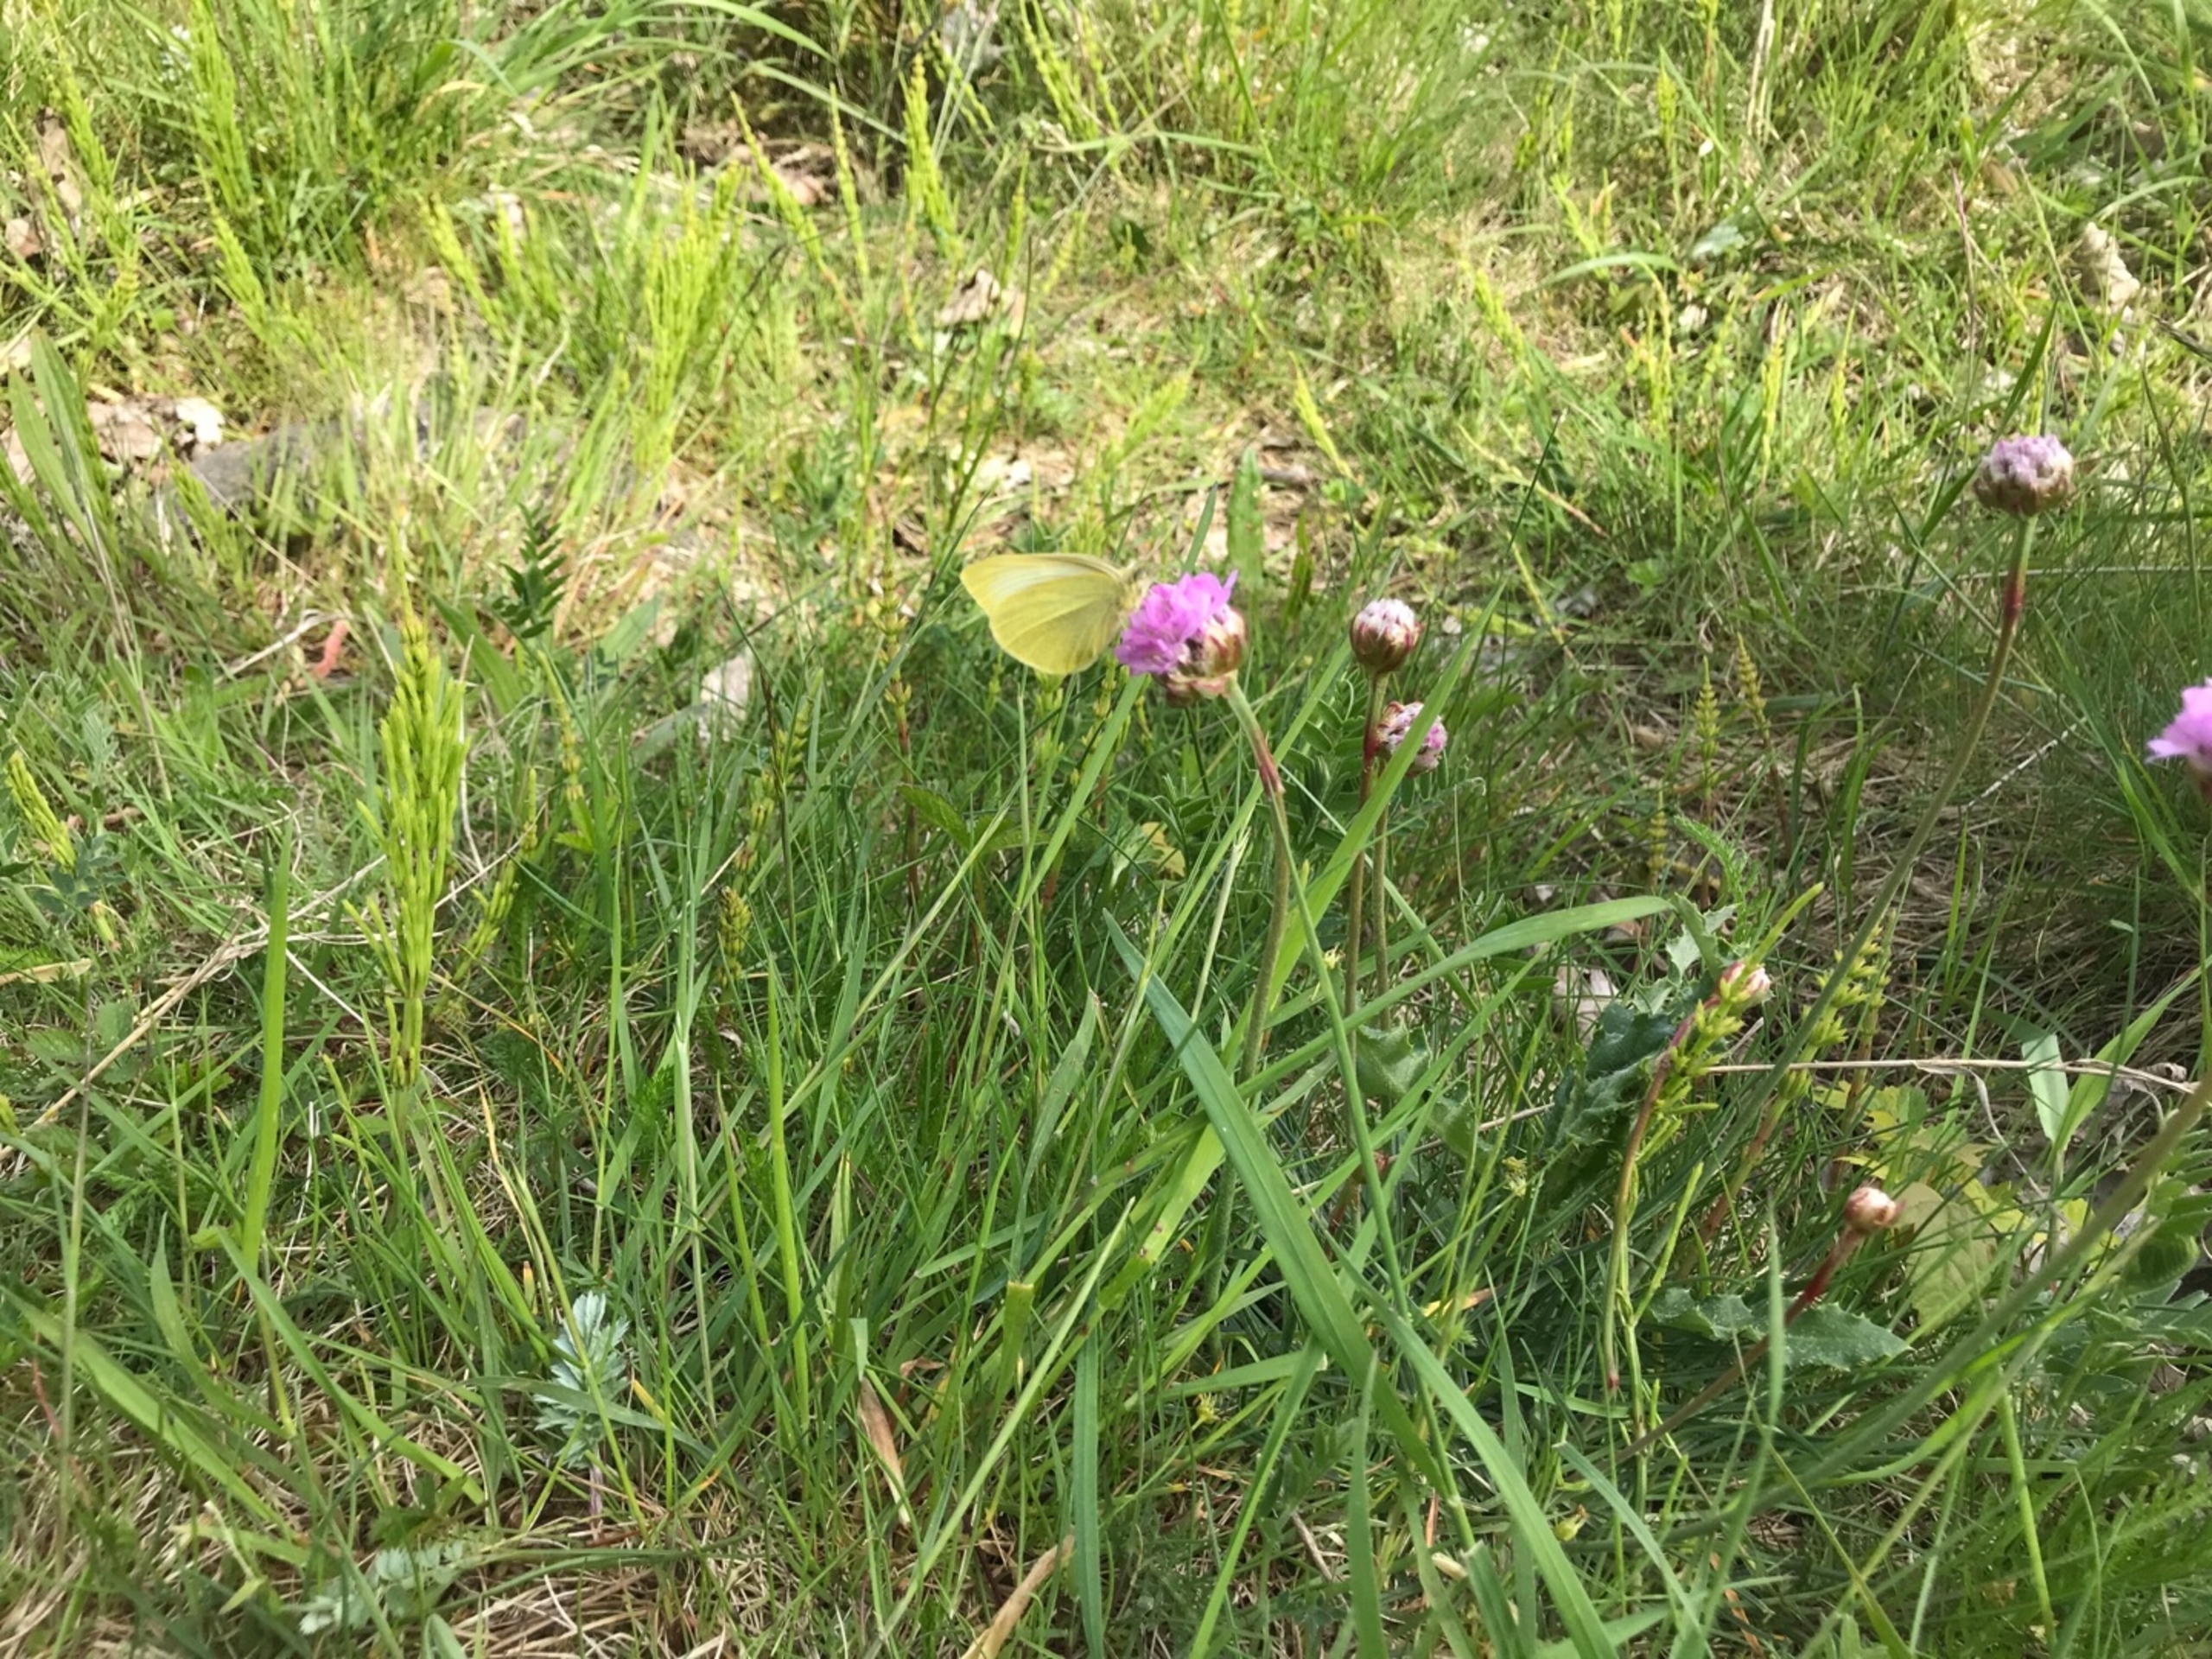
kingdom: Animalia
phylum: Arthropoda
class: Insecta
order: Lepidoptera
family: Pieridae
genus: Pieris
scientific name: Pieris rapae
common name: Lille kålsommerfugl
